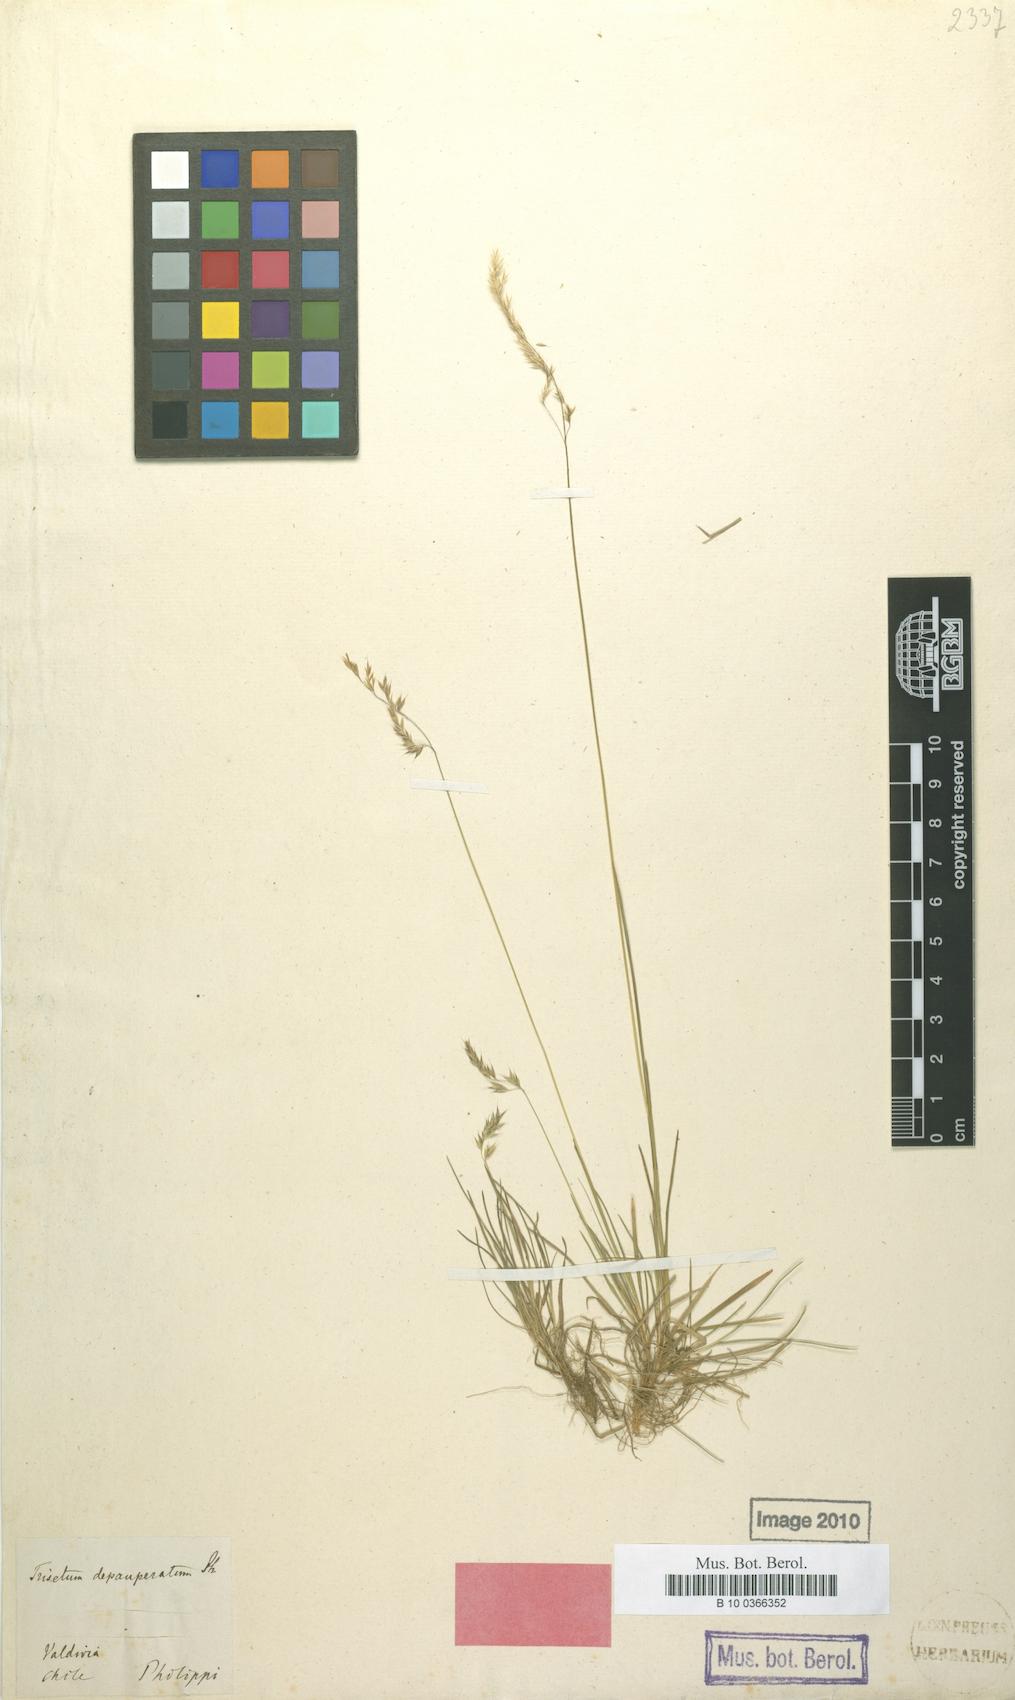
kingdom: Plantae
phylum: Tracheophyta
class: Liliopsida
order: Poales
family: Poaceae
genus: Cinnagrostis
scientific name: Cinnagrostis micrathera
